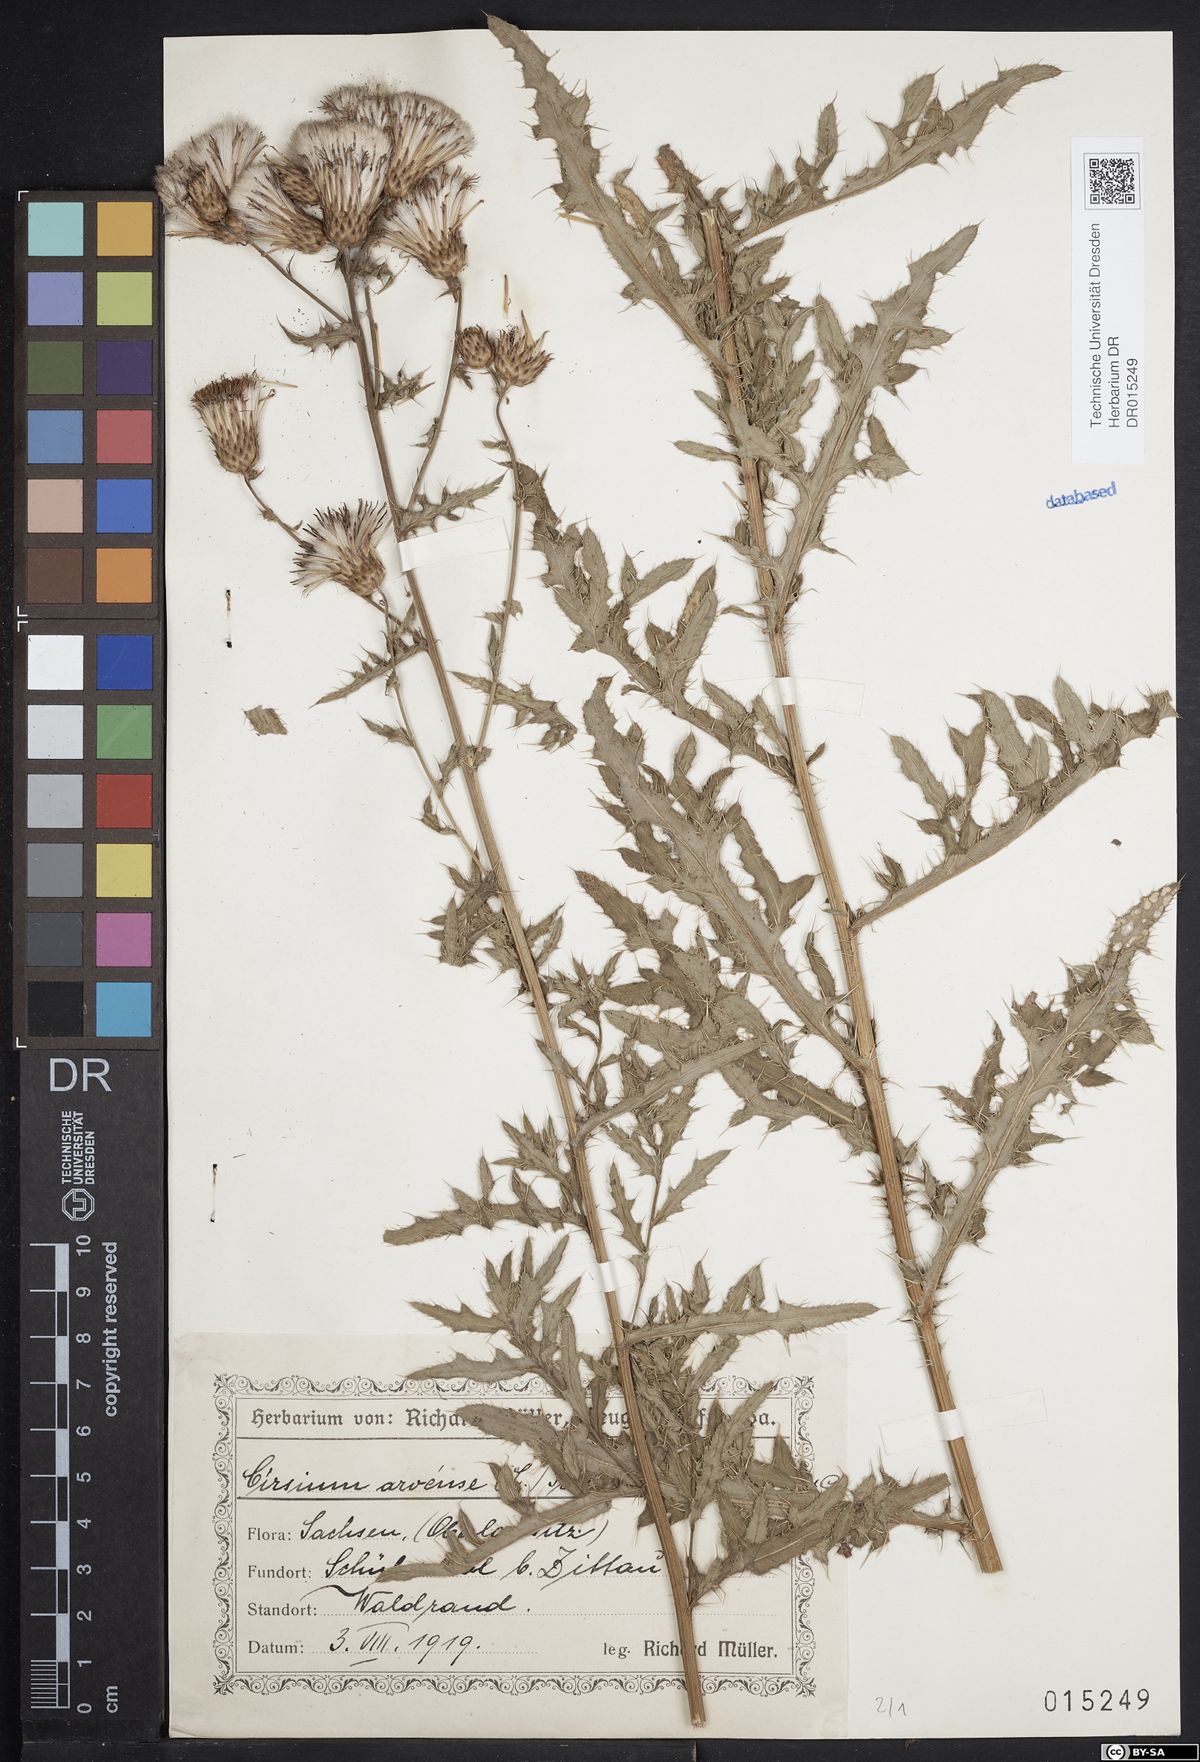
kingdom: Plantae
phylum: Tracheophyta
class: Magnoliopsida
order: Asterales
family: Asteraceae
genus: Cirsium
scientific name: Cirsium arvense
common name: Creeping thistle
